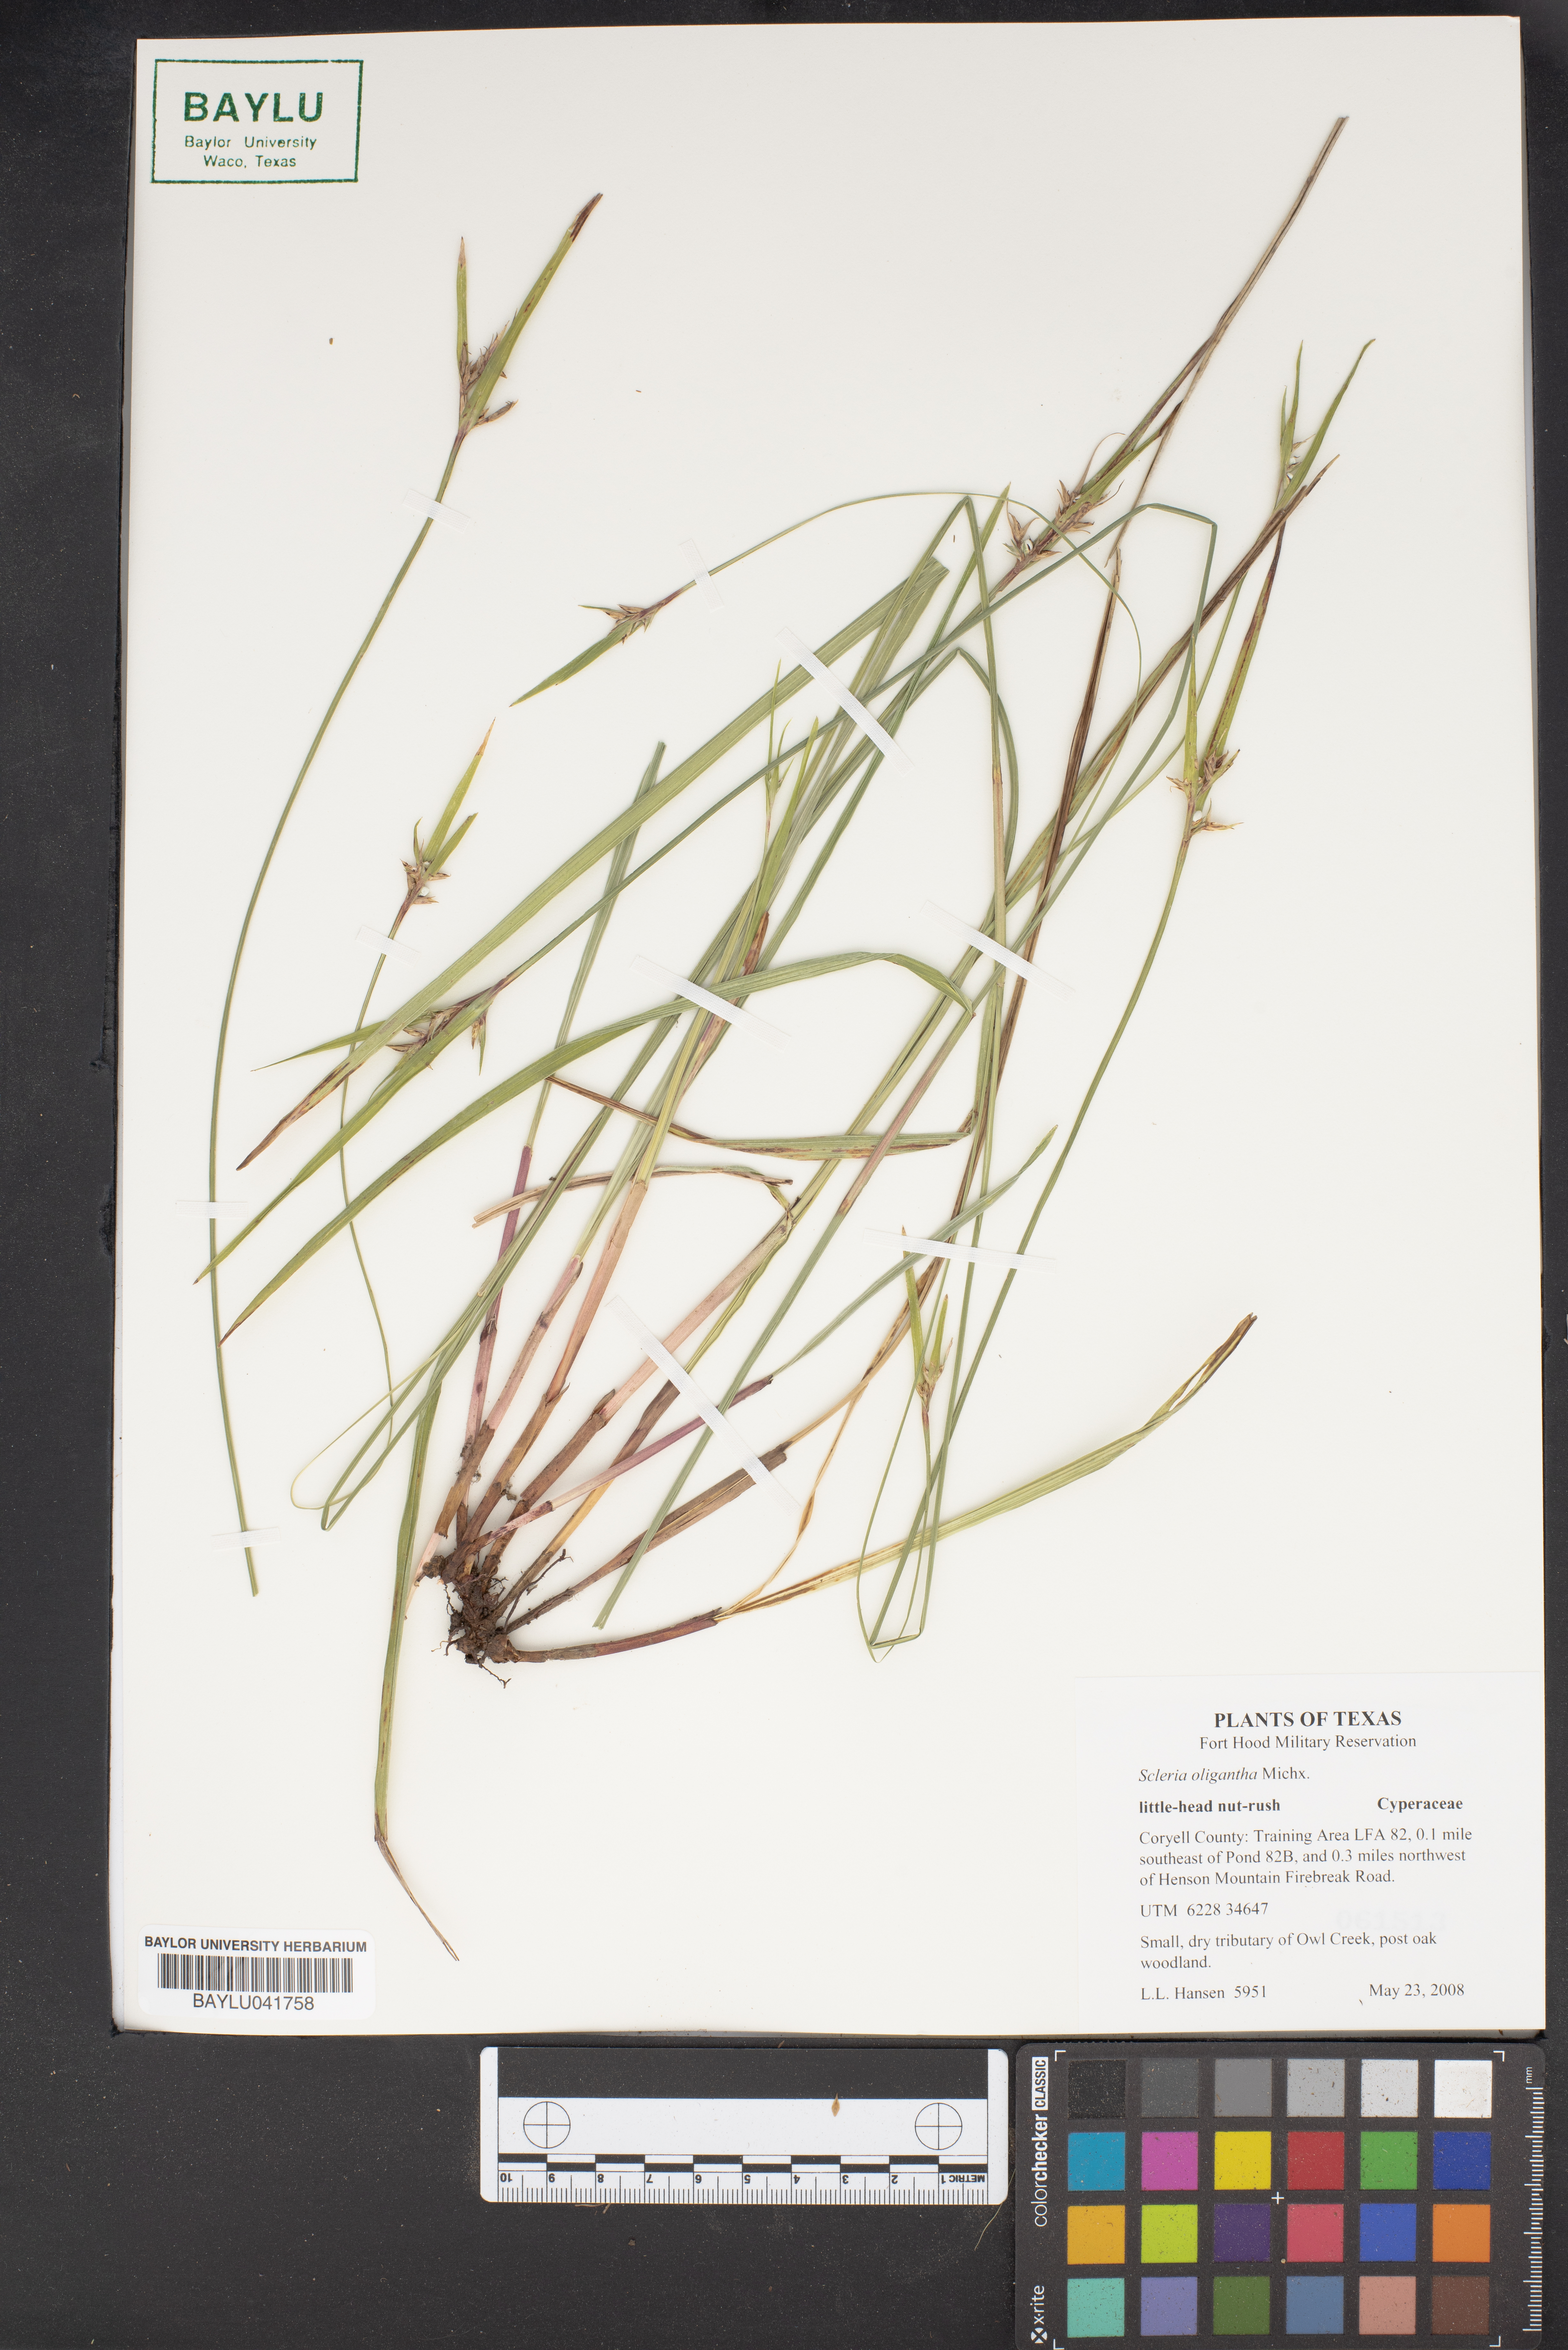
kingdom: Plantae
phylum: Tracheophyta
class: Liliopsida
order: Poales
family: Cyperaceae
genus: Scleria
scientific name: Scleria oligantha
